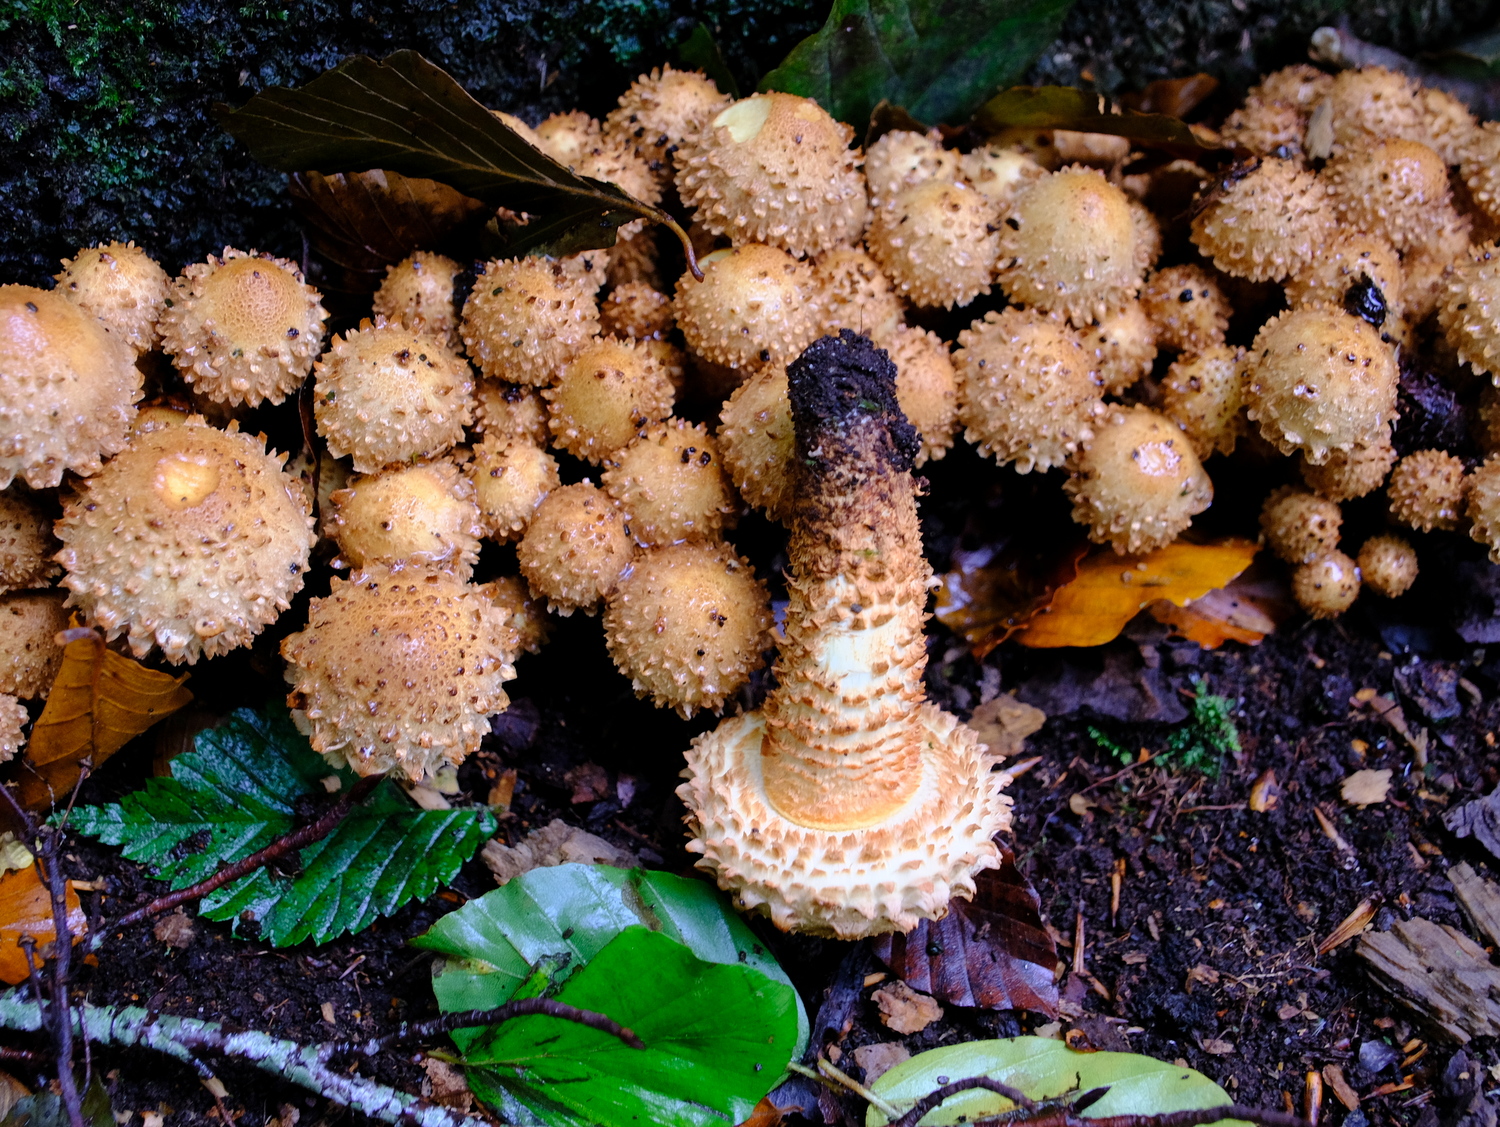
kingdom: Fungi
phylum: Basidiomycota
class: Agaricomycetes
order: Agaricales
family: Strophariaceae
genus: Pholiota
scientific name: Pholiota squarrosa
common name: krumskællet skælhat
